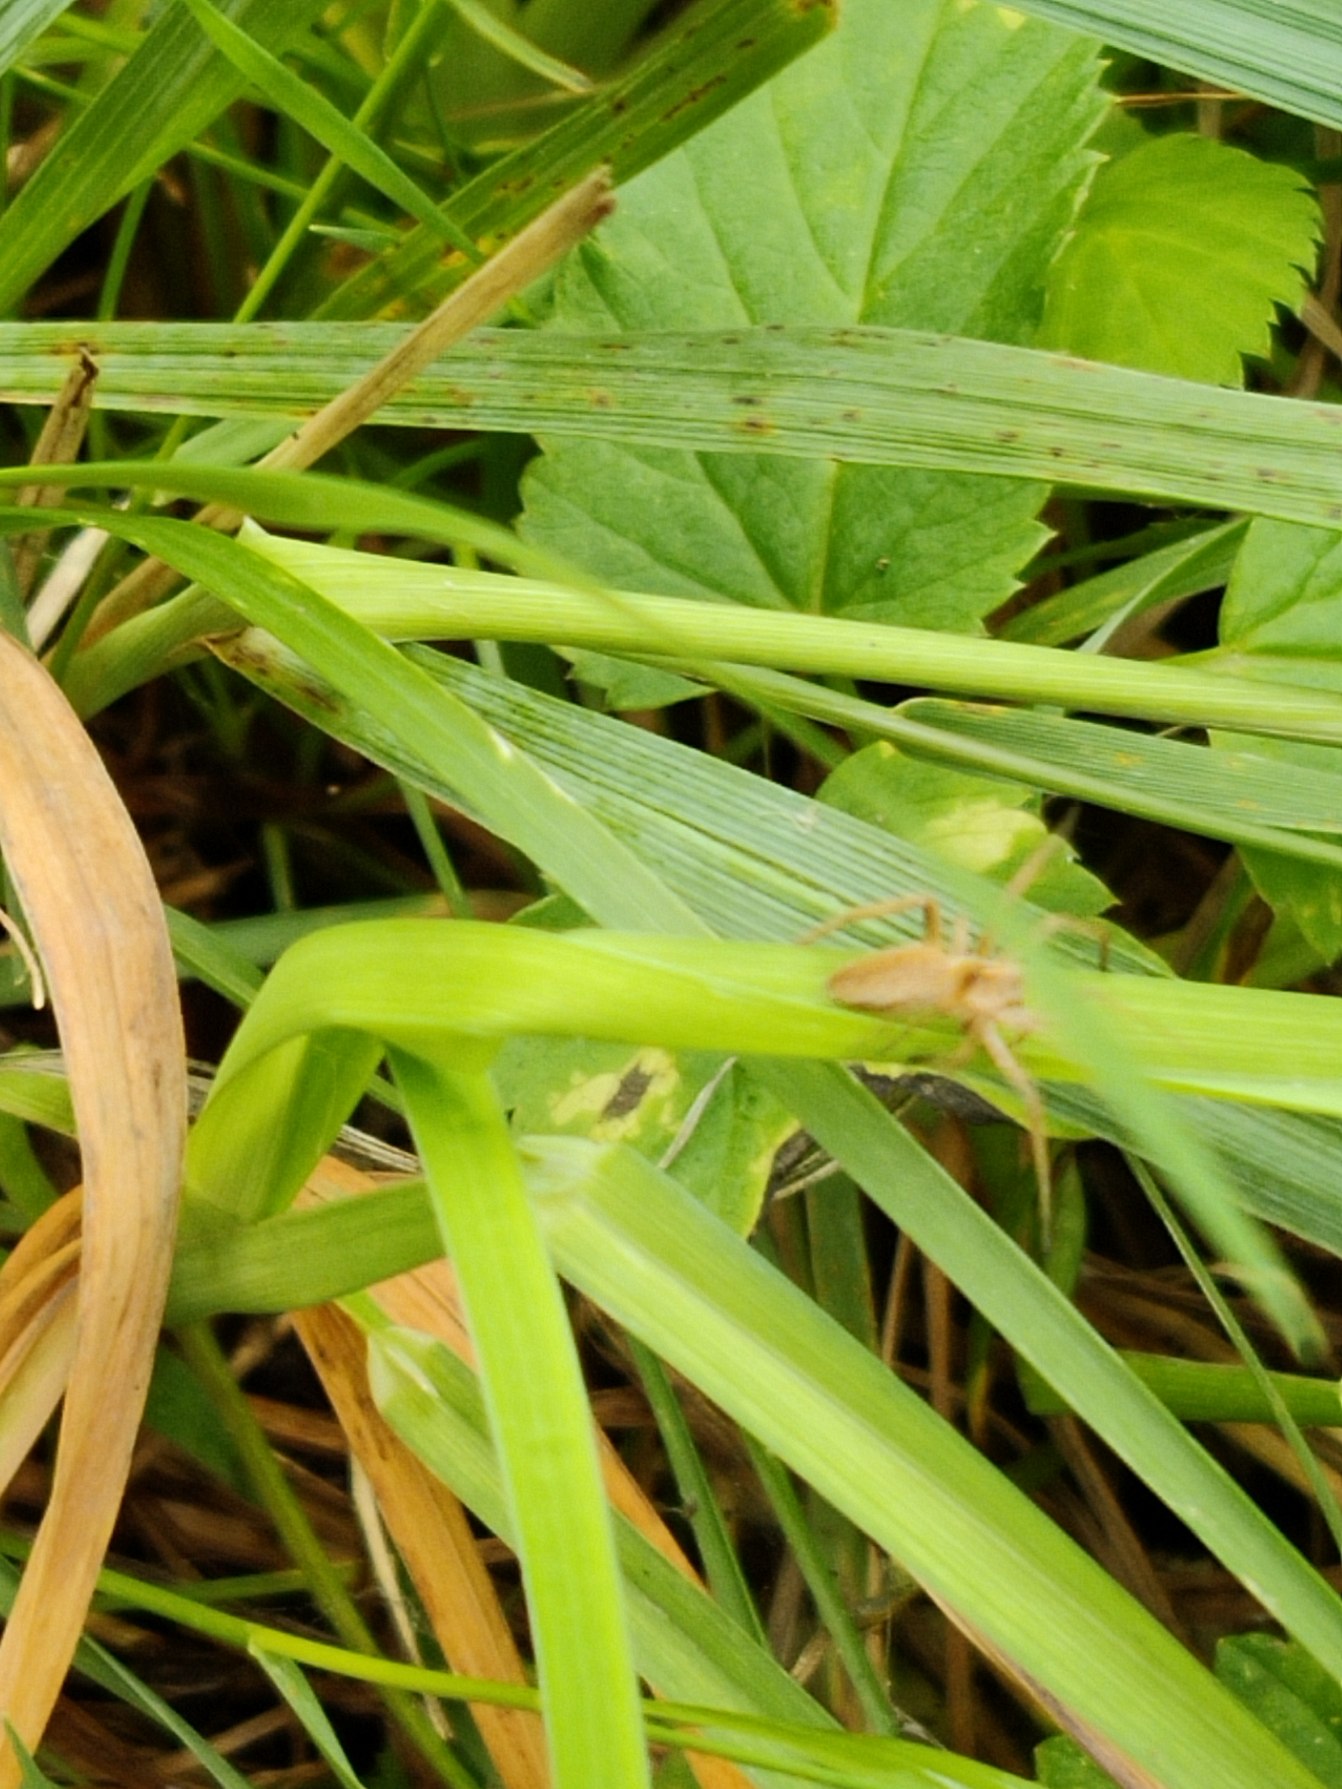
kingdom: Animalia
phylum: Arthropoda
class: Arachnida
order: Araneae
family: Pisauridae
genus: Pisaura
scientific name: Pisaura mirabilis
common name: Almindelig rovedderkop
